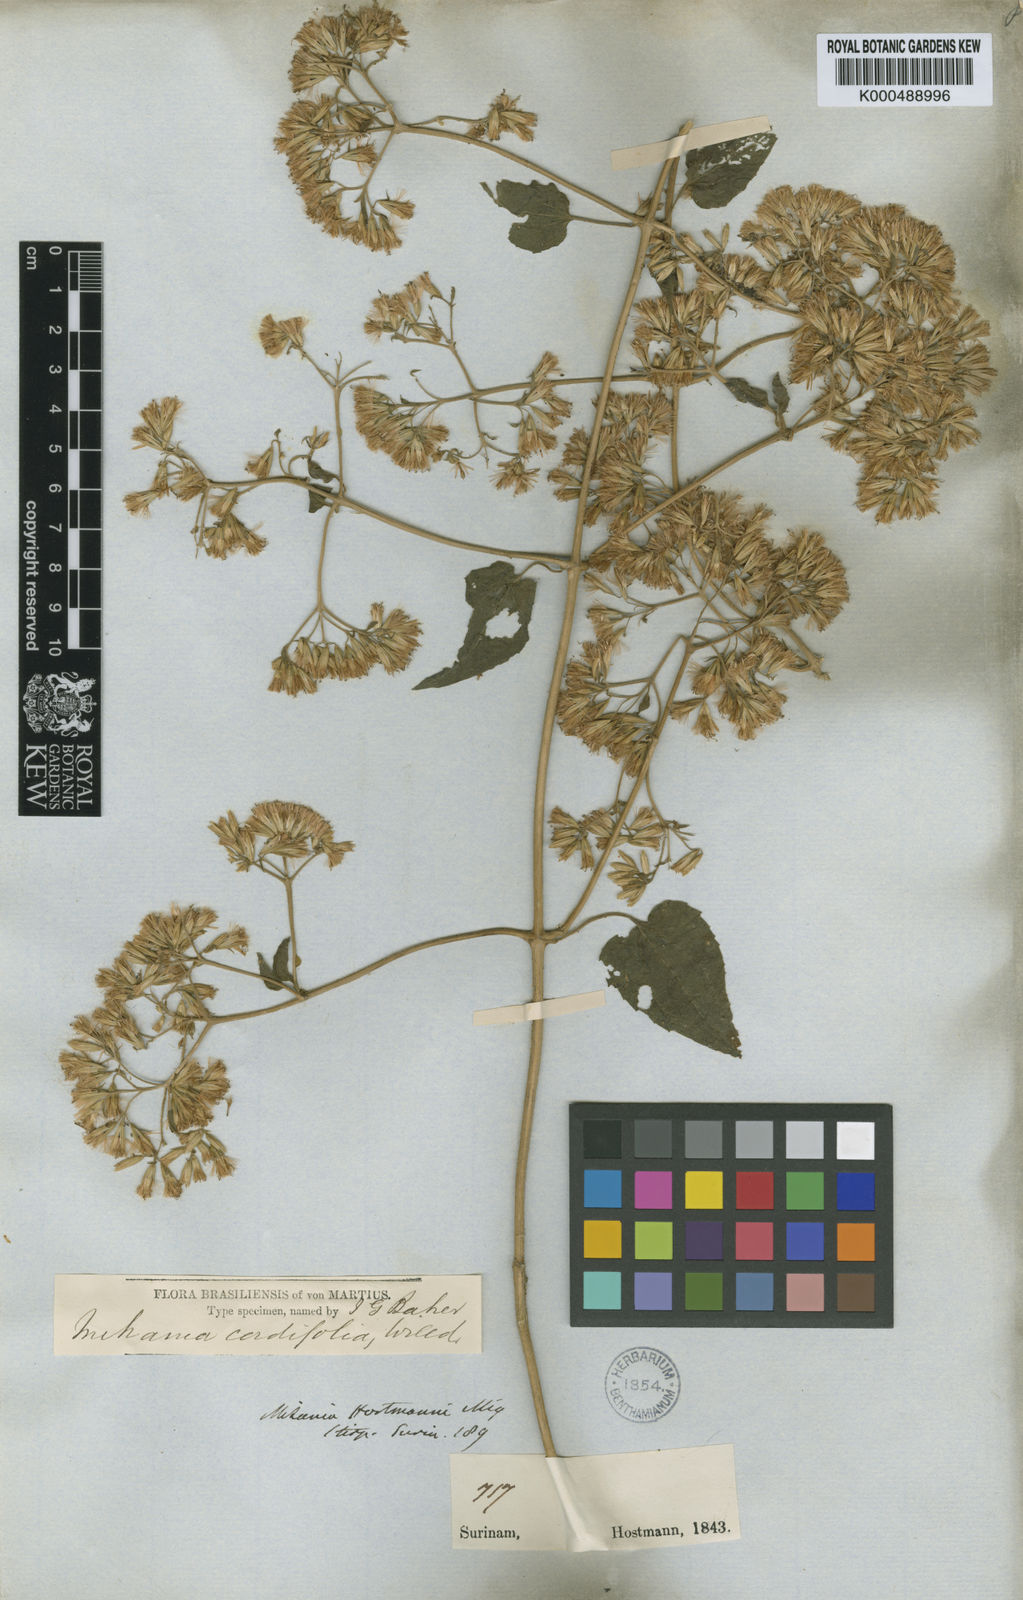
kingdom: Plantae
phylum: Tracheophyta
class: Magnoliopsida
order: Asterales
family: Asteraceae
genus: Mikania
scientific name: Mikania cordifolia
